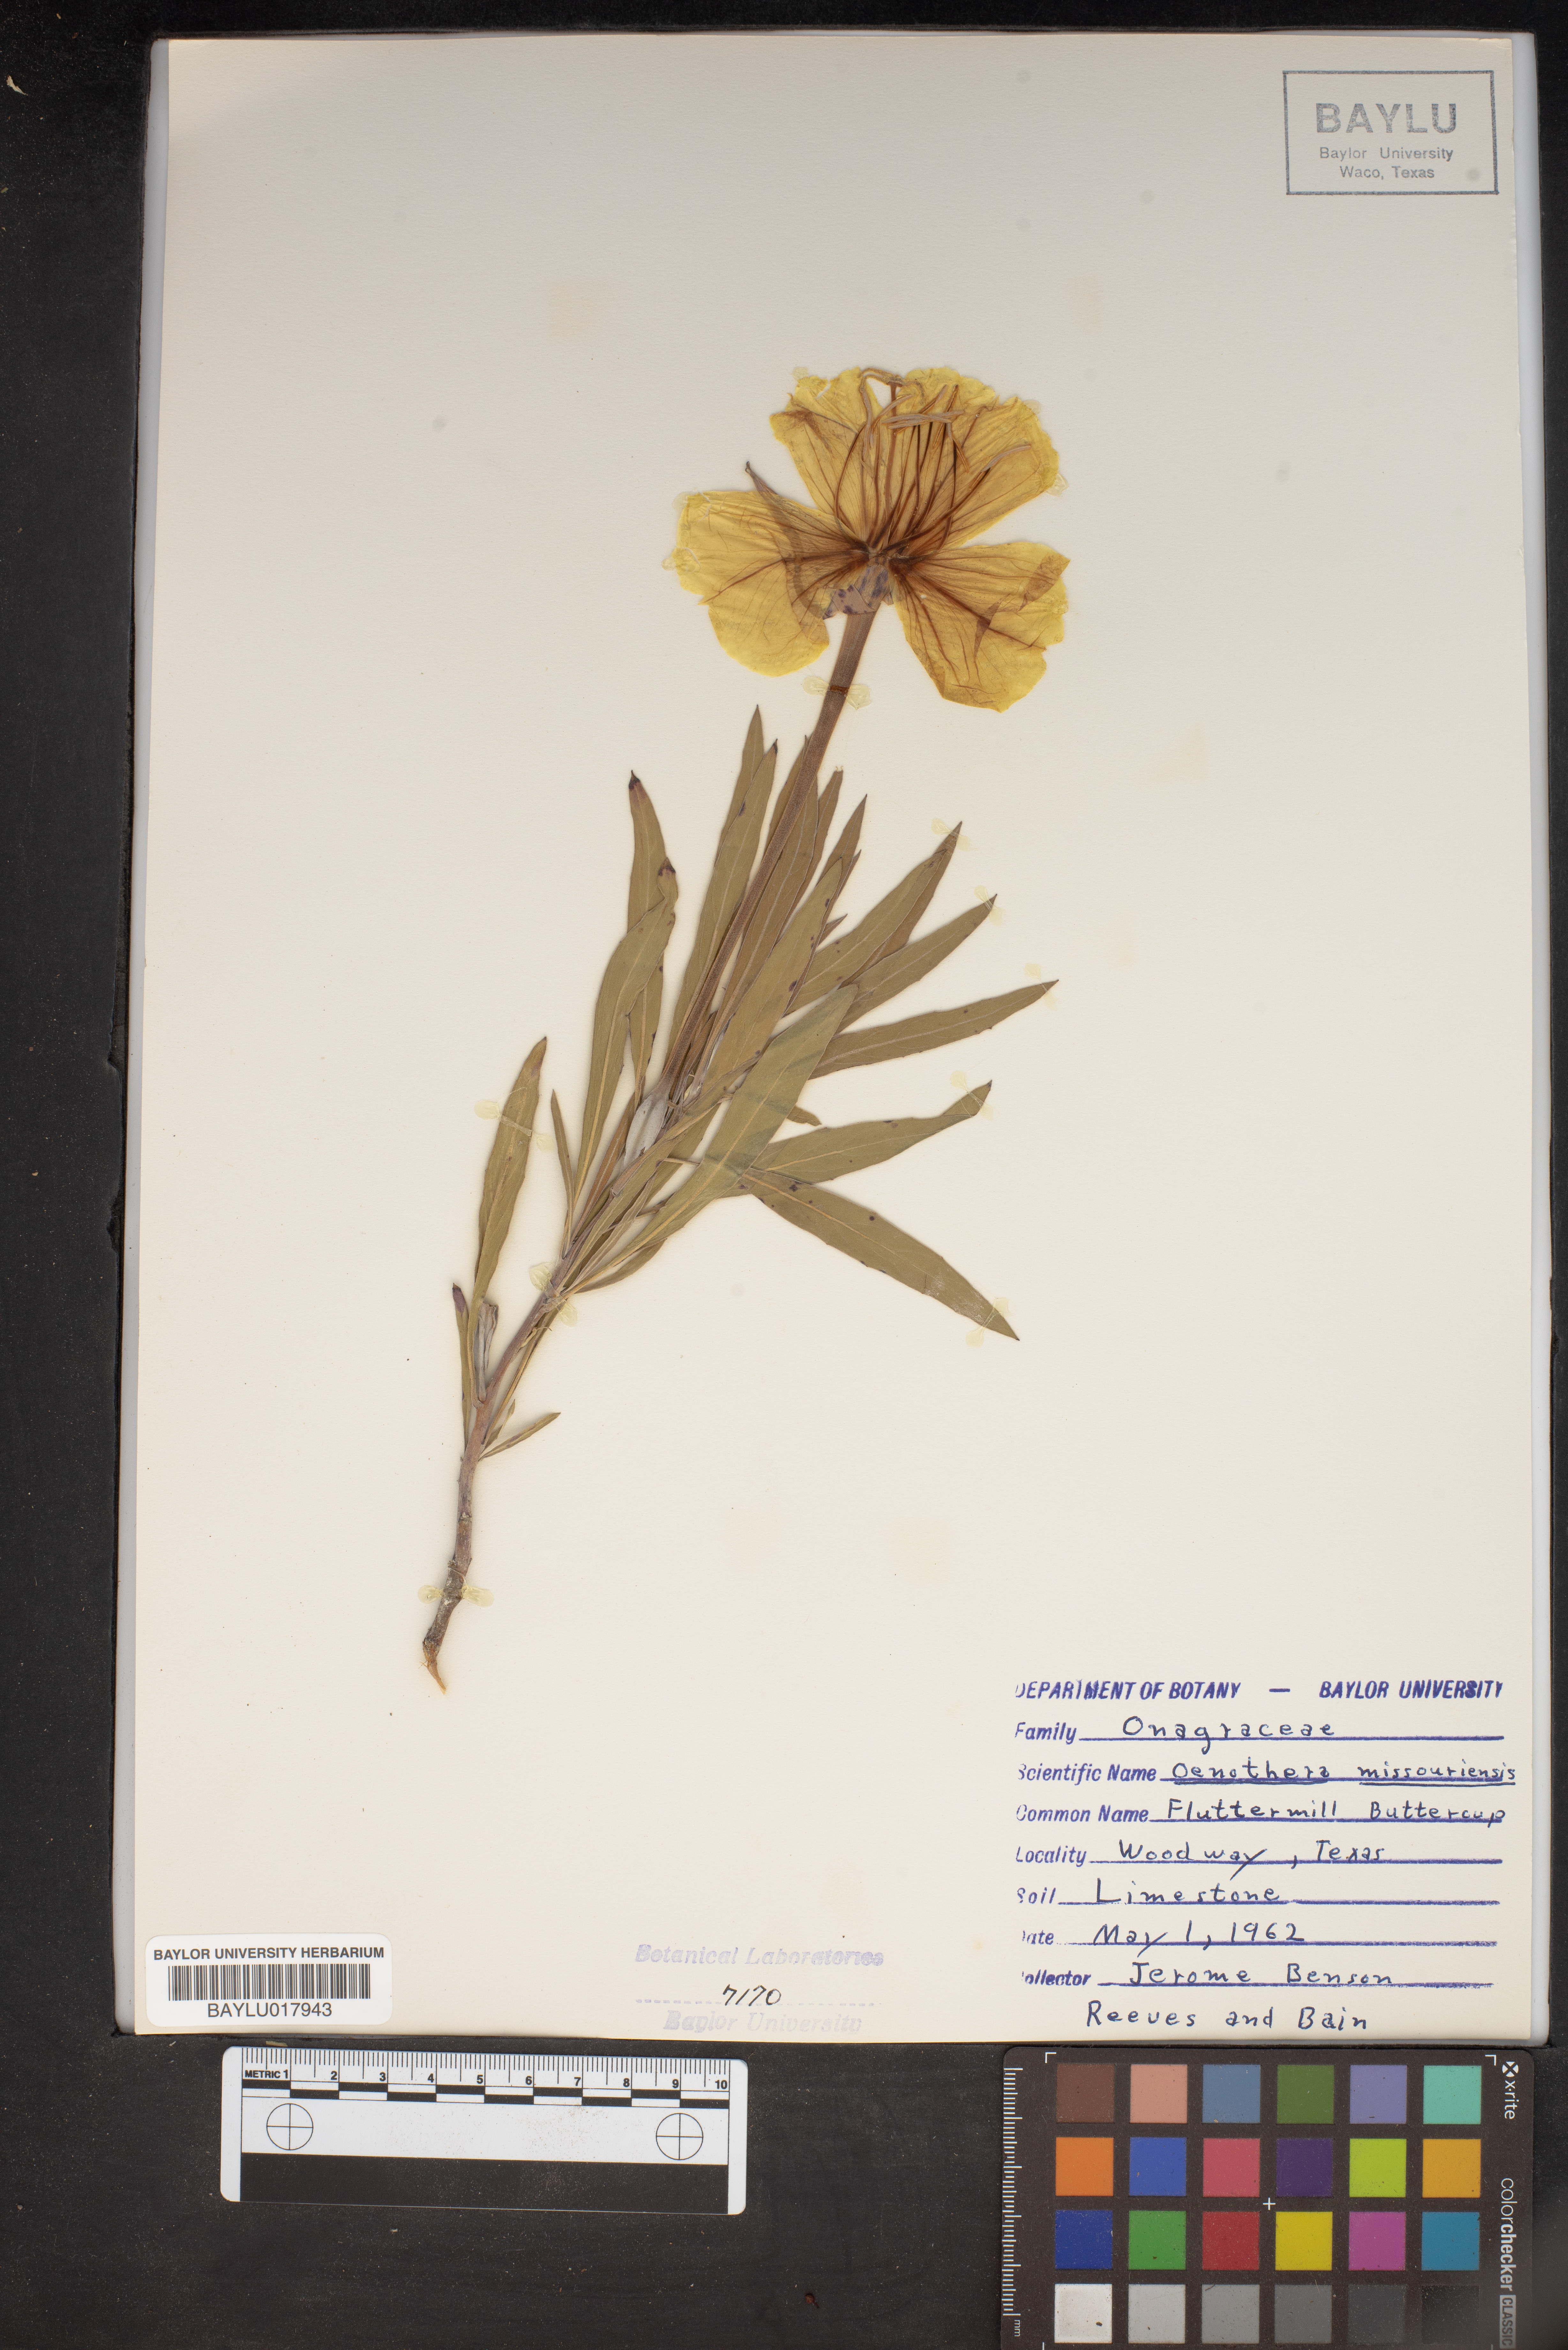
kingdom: Plantae
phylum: Tracheophyta
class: Magnoliopsida
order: Myrtales
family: Onagraceae
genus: Oenothera
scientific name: Oenothera macrocarpa
